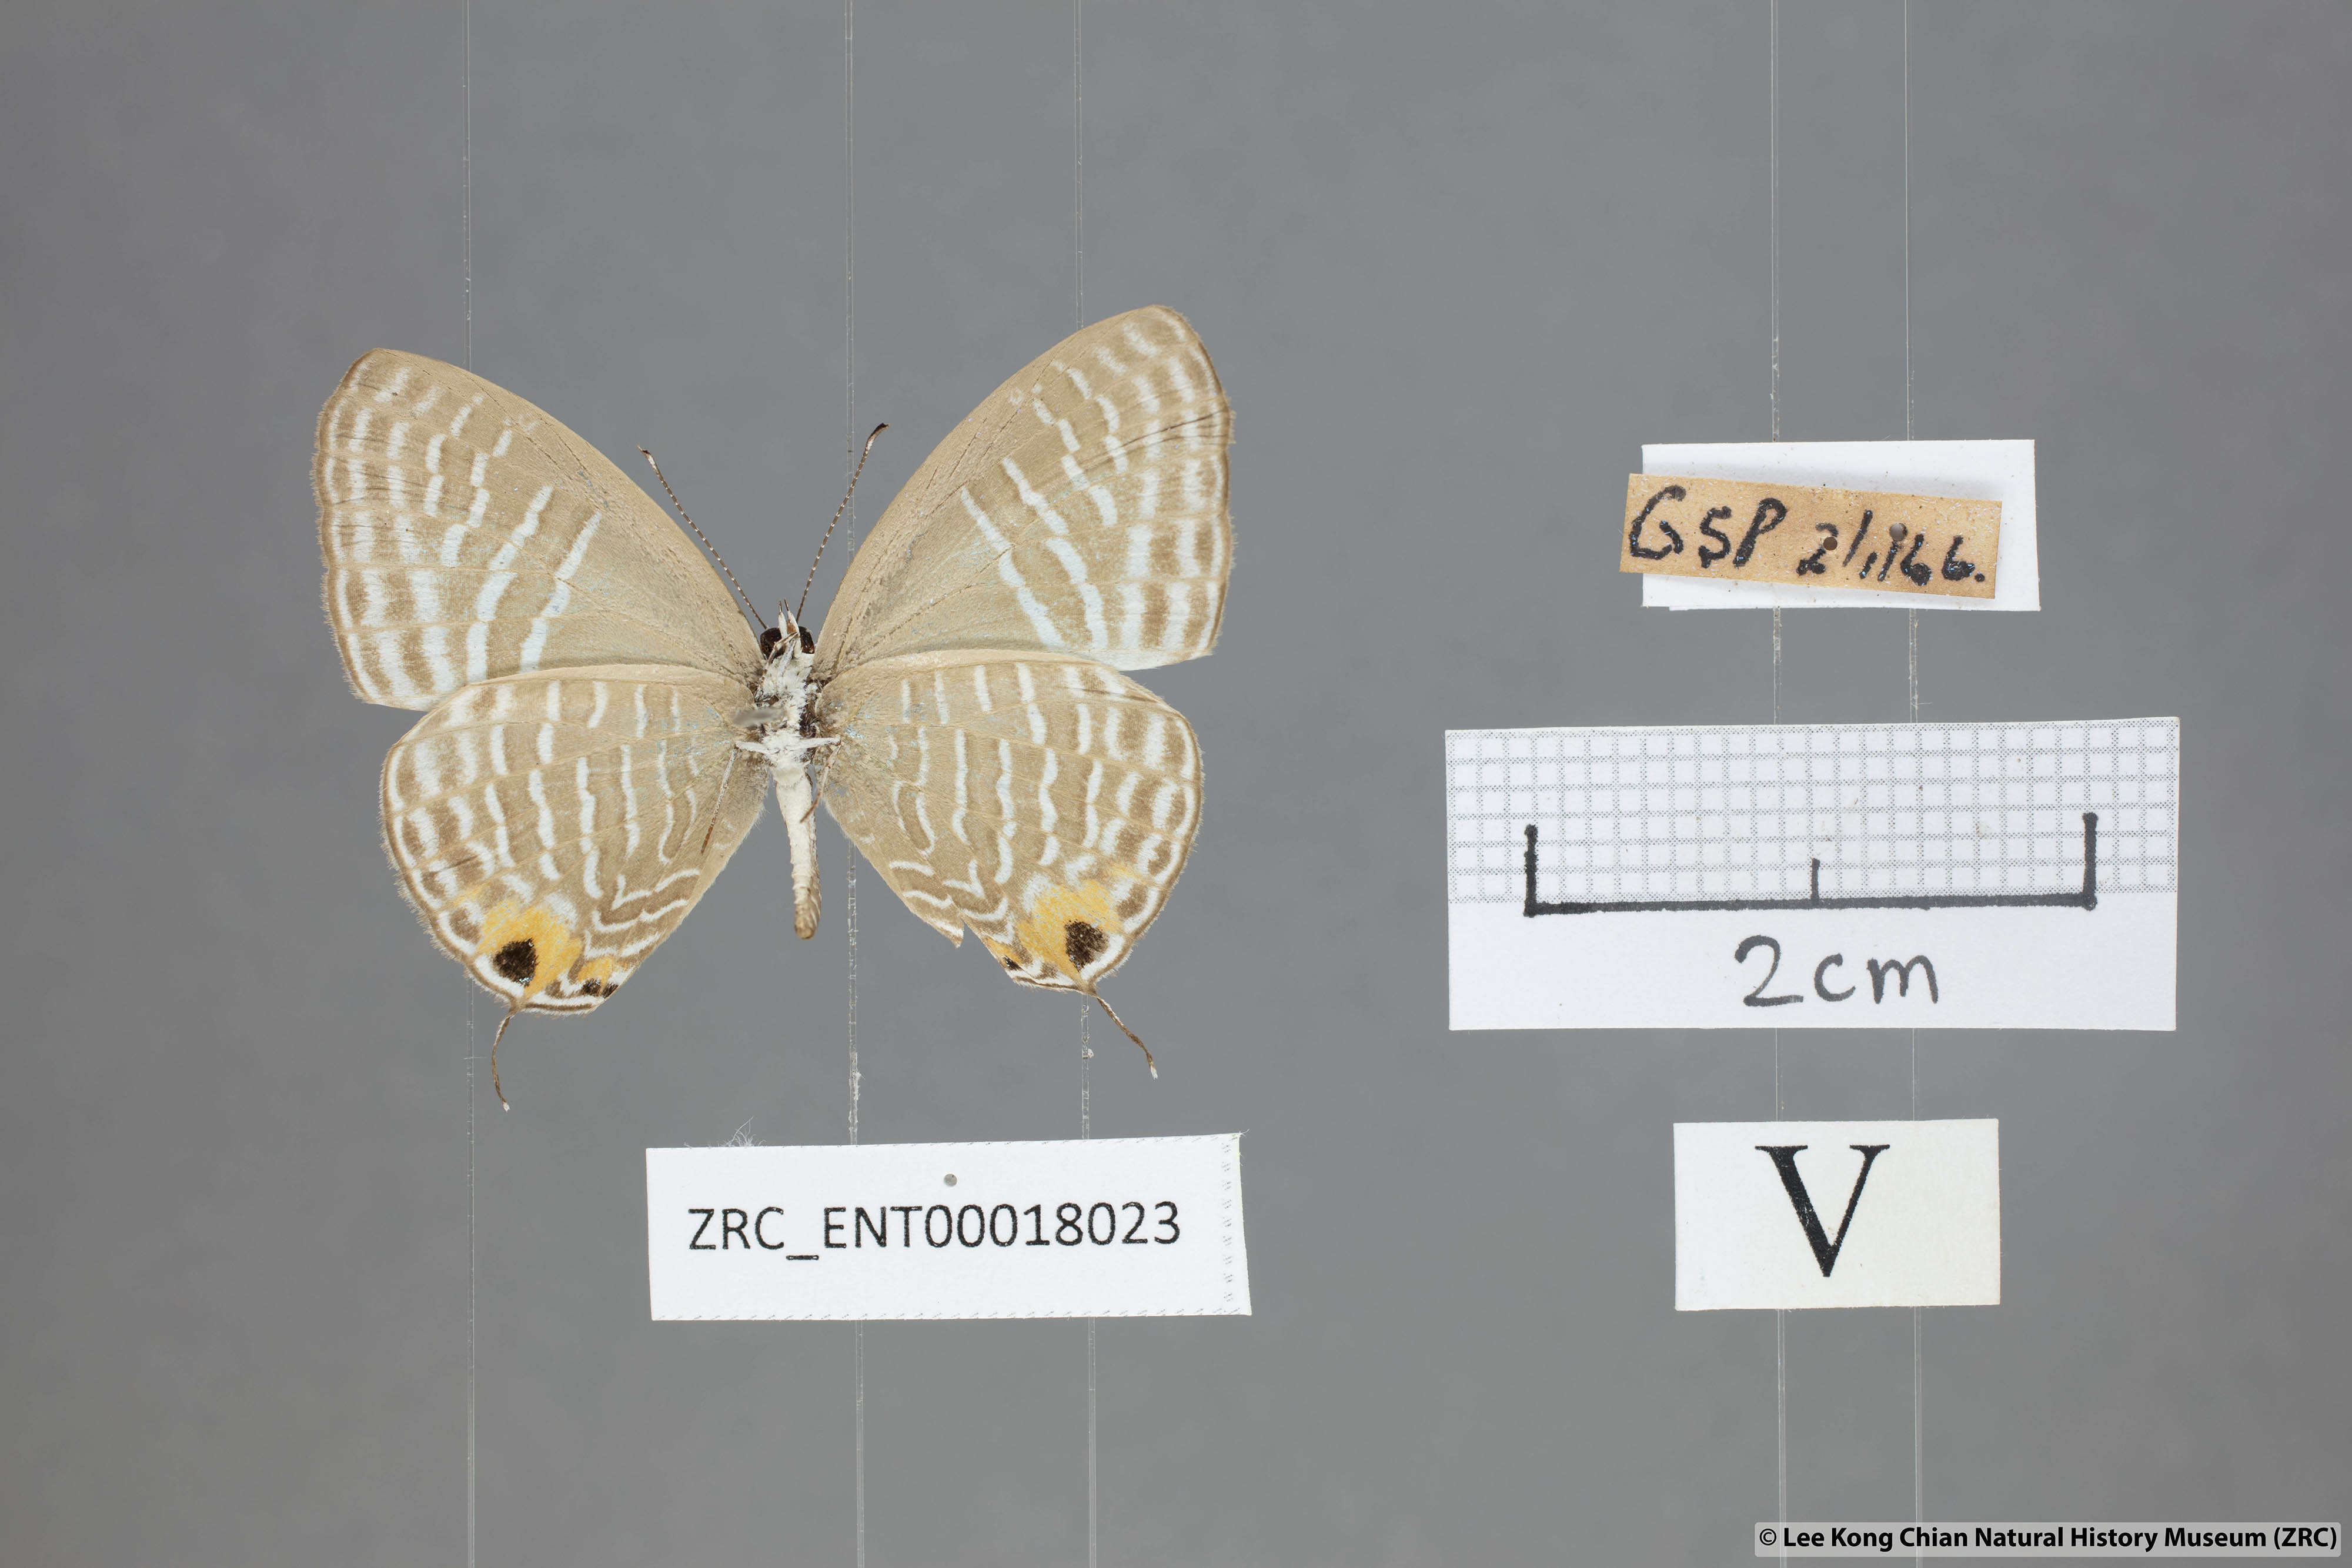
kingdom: Animalia
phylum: Arthropoda
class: Insecta
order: Lepidoptera
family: Lycaenidae
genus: Jamides
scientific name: Jamides alecto
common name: Metallic cerulean
